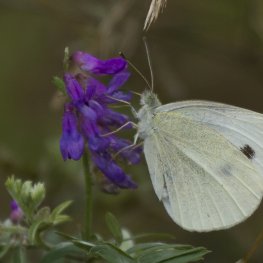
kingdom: Animalia
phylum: Arthropoda
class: Insecta
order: Lepidoptera
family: Pieridae
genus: Pieris
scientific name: Pieris rapae
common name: Cabbage White
